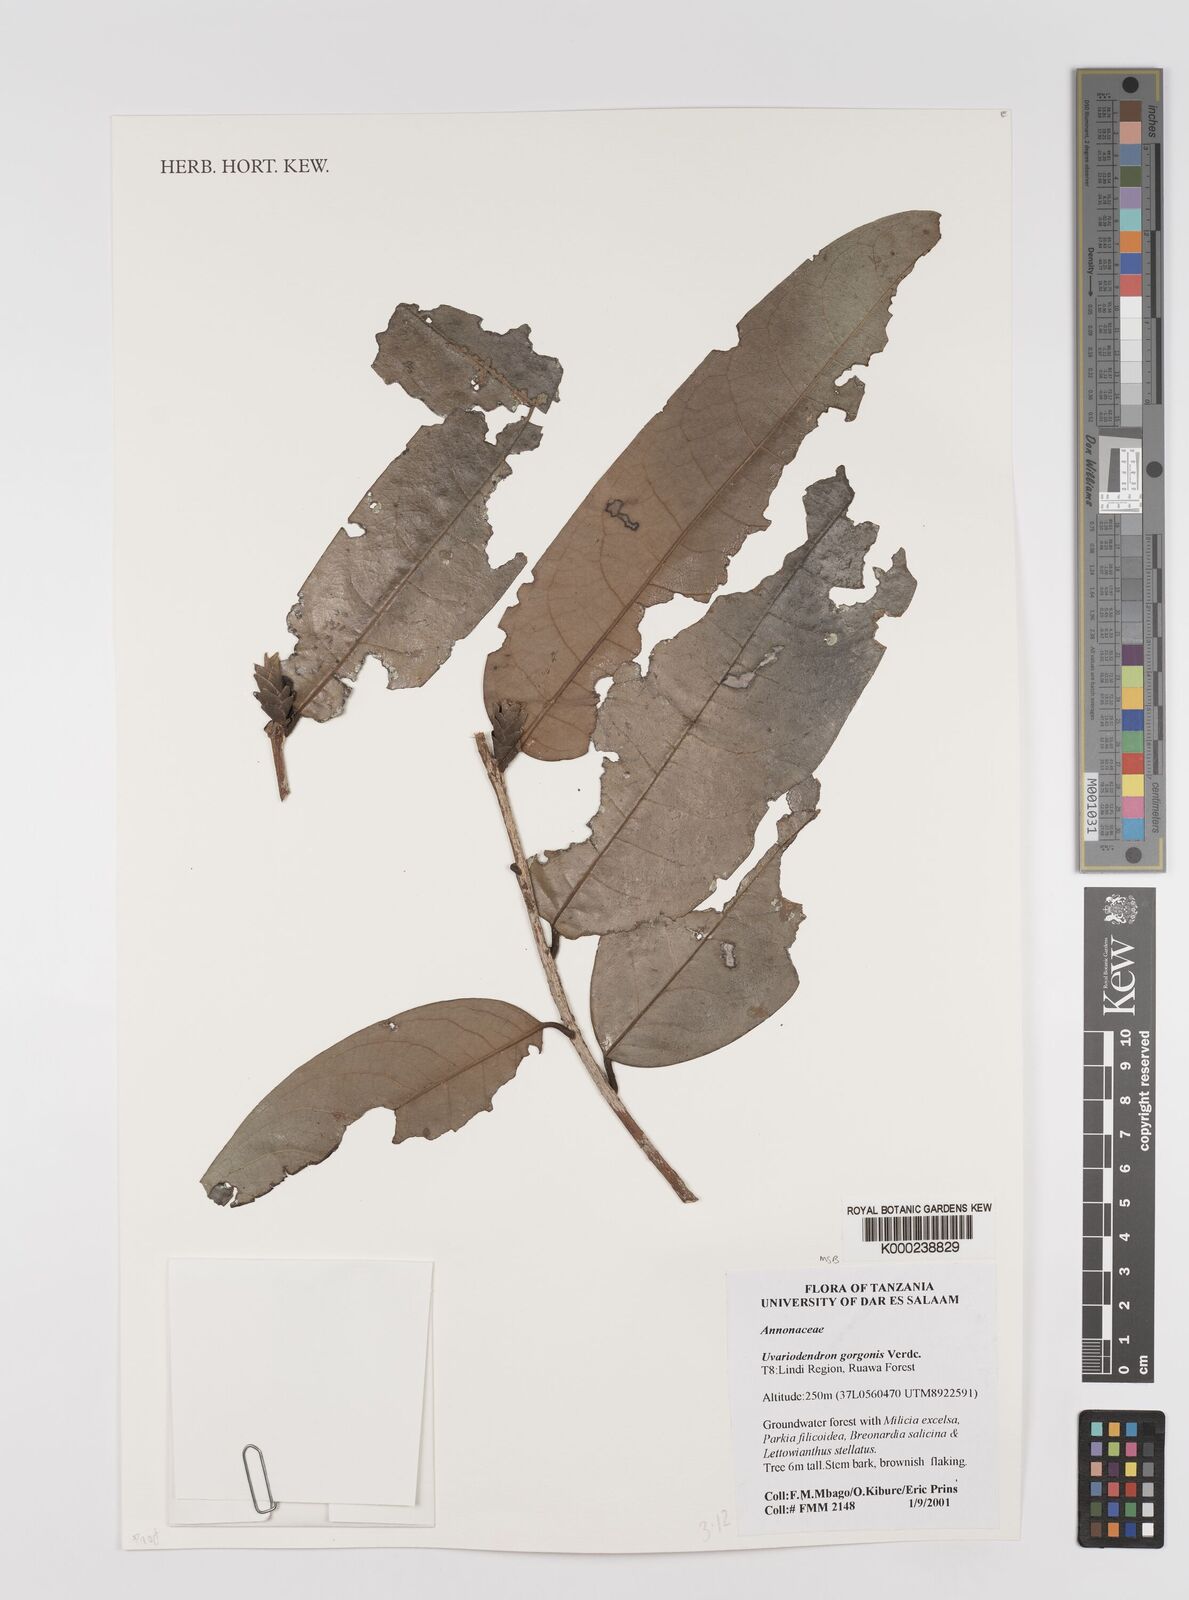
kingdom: Plantae
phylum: Tracheophyta
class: Magnoliopsida
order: Magnoliales
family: Annonaceae
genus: Uvariodendron
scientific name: Uvariodendron gorgonis
